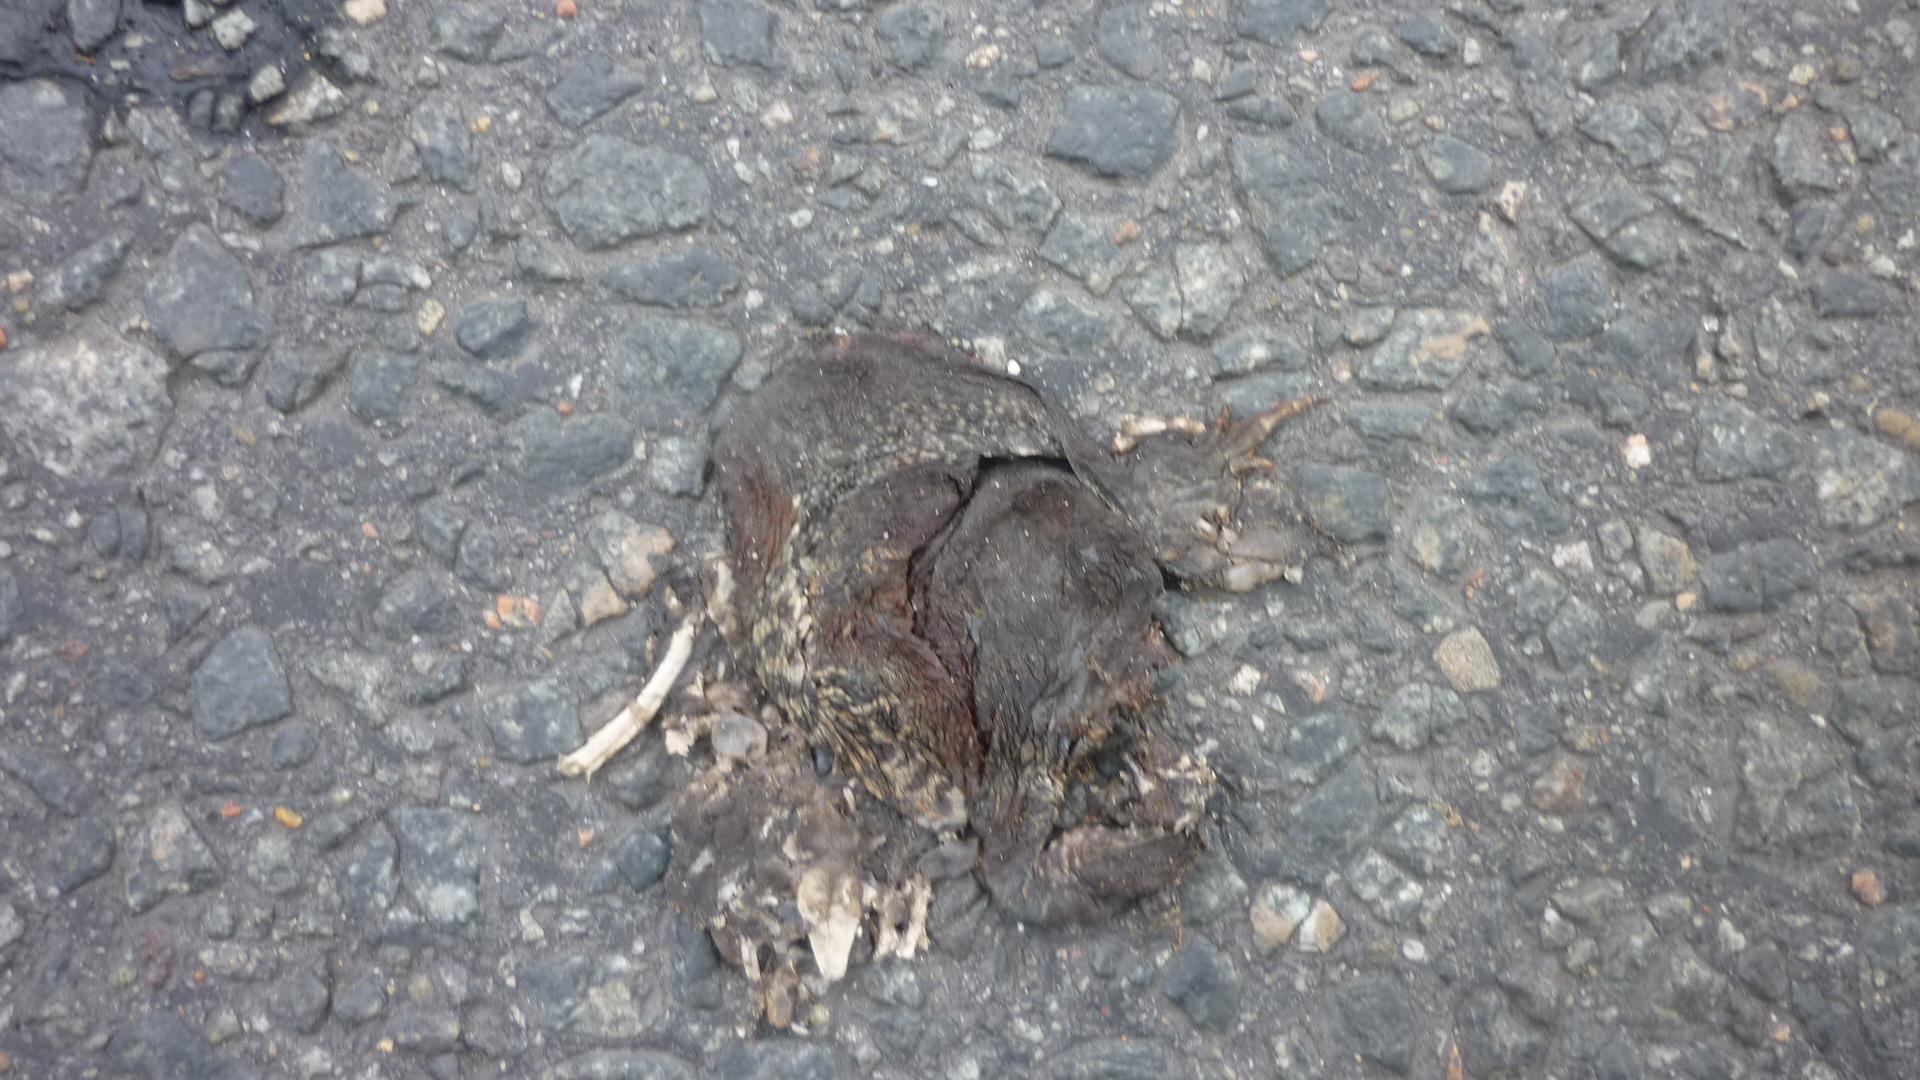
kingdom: Animalia
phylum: Chordata
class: Amphibia
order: Anura
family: Bufonidae
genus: Bufo
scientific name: Bufo bufo
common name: Common toad
